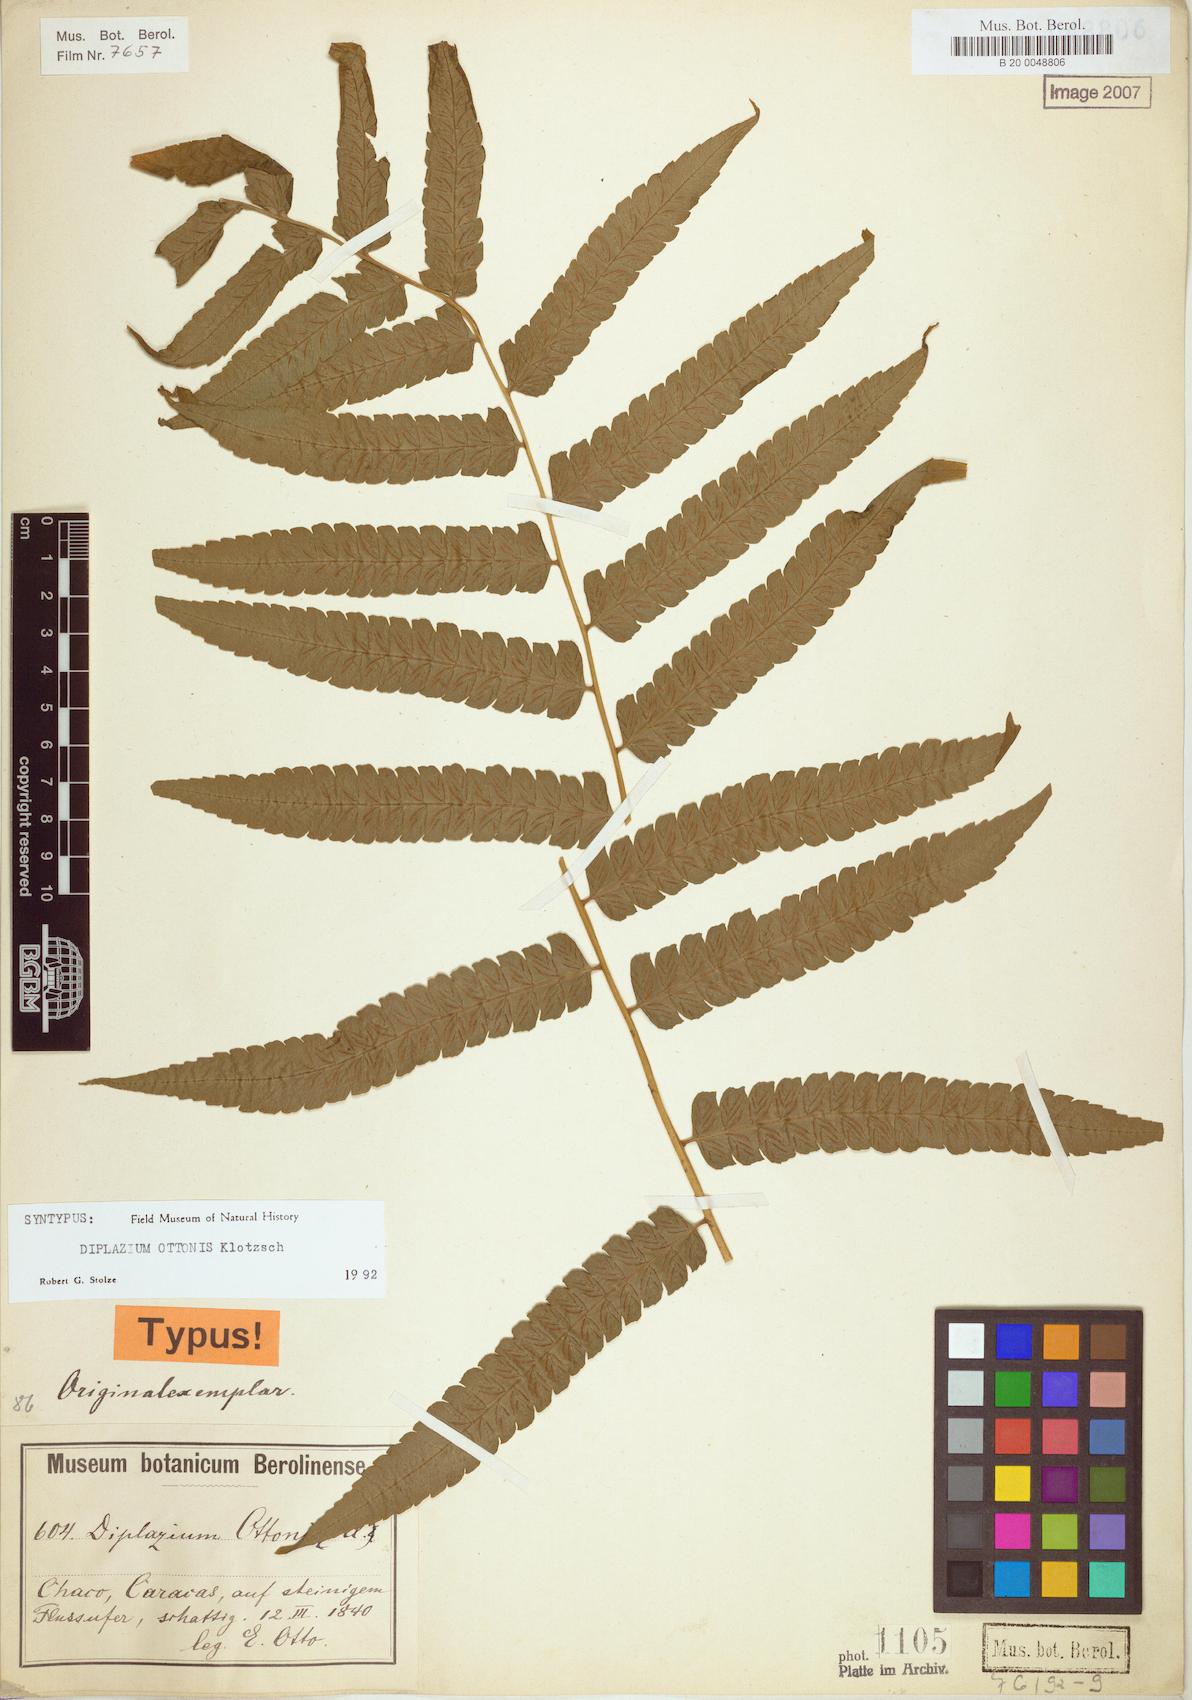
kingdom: Plantae
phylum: Tracheophyta
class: Polypodiopsida
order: Polypodiales
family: Athyriaceae
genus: Diplazium
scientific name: Diplazium ottonis
